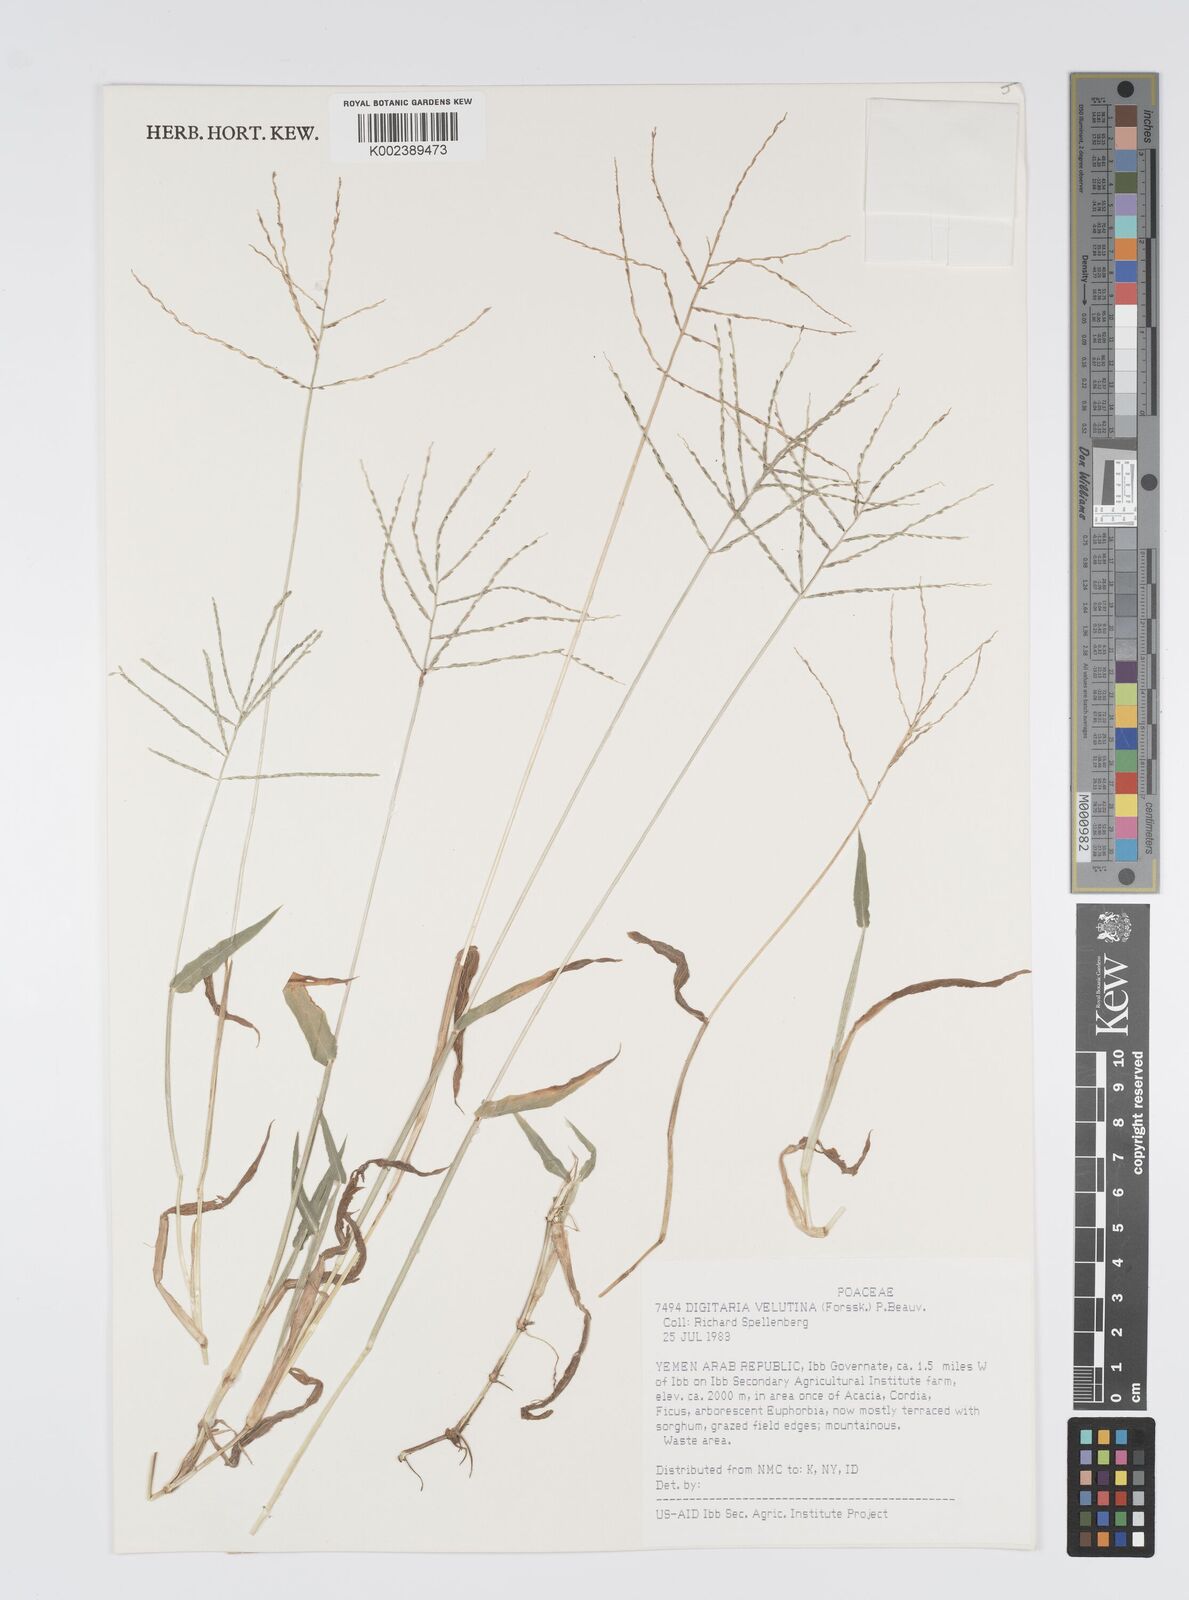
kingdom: Plantae
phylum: Tracheophyta
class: Liliopsida
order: Poales
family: Poaceae
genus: Digitaria
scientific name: Digitaria velutina
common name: Long-plume finger grass
